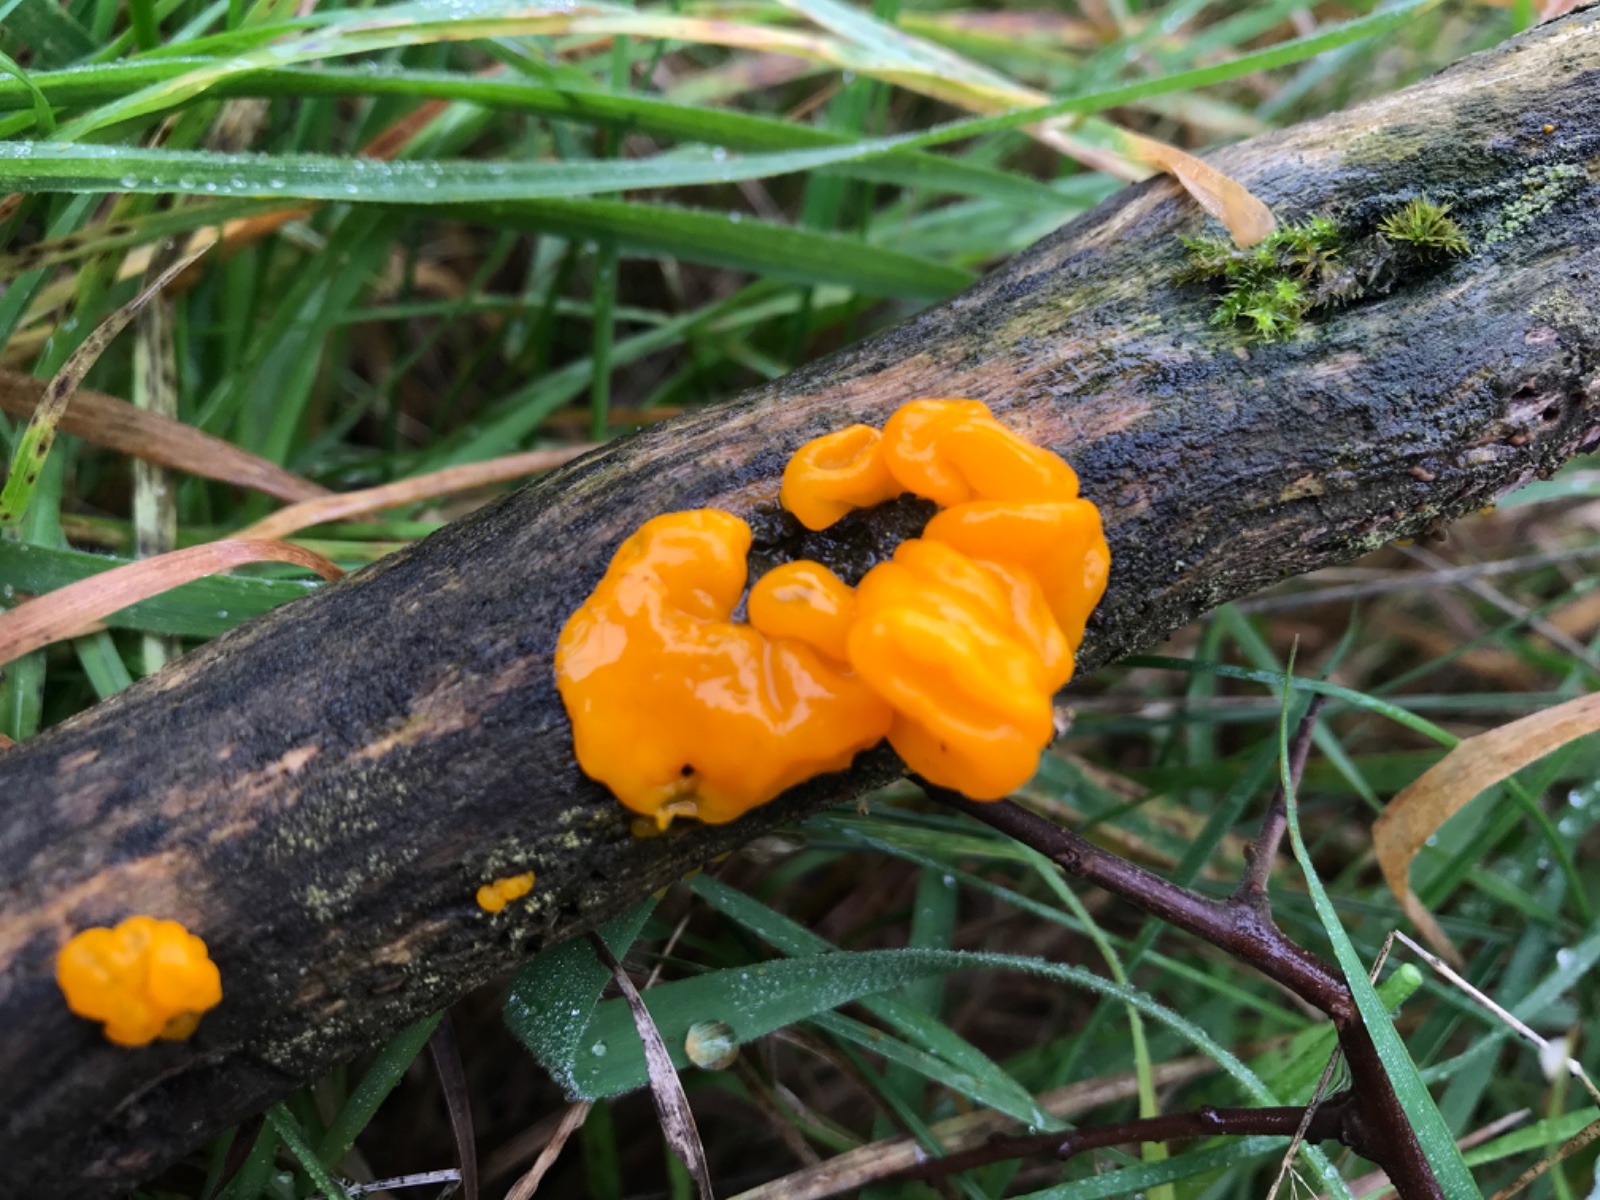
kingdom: Fungi
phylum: Basidiomycota
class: Tremellomycetes
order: Tremellales
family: Tremellaceae
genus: Tremella
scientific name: Tremella mesenterica
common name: gul bævresvamp
